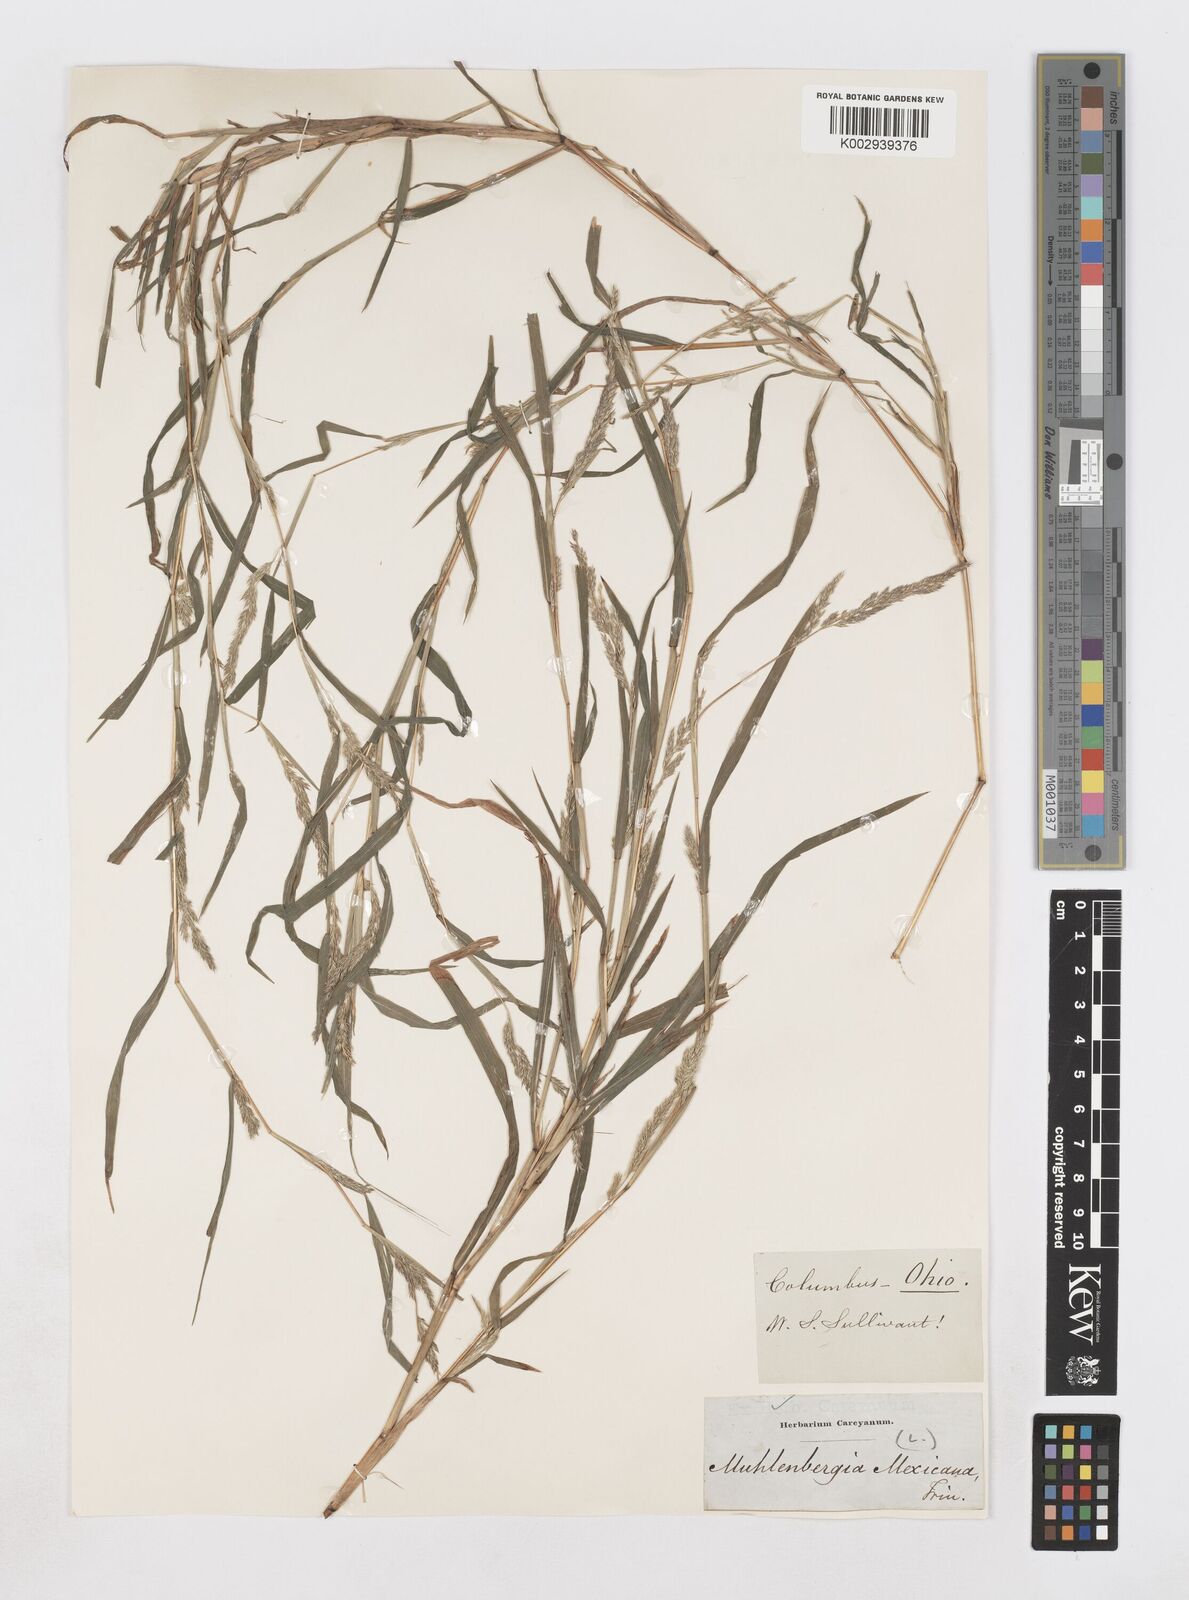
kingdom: Plantae
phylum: Tracheophyta
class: Liliopsida
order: Poales
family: Poaceae
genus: Muhlenbergia
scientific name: Muhlenbergia mexicana
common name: Mexican muhly
